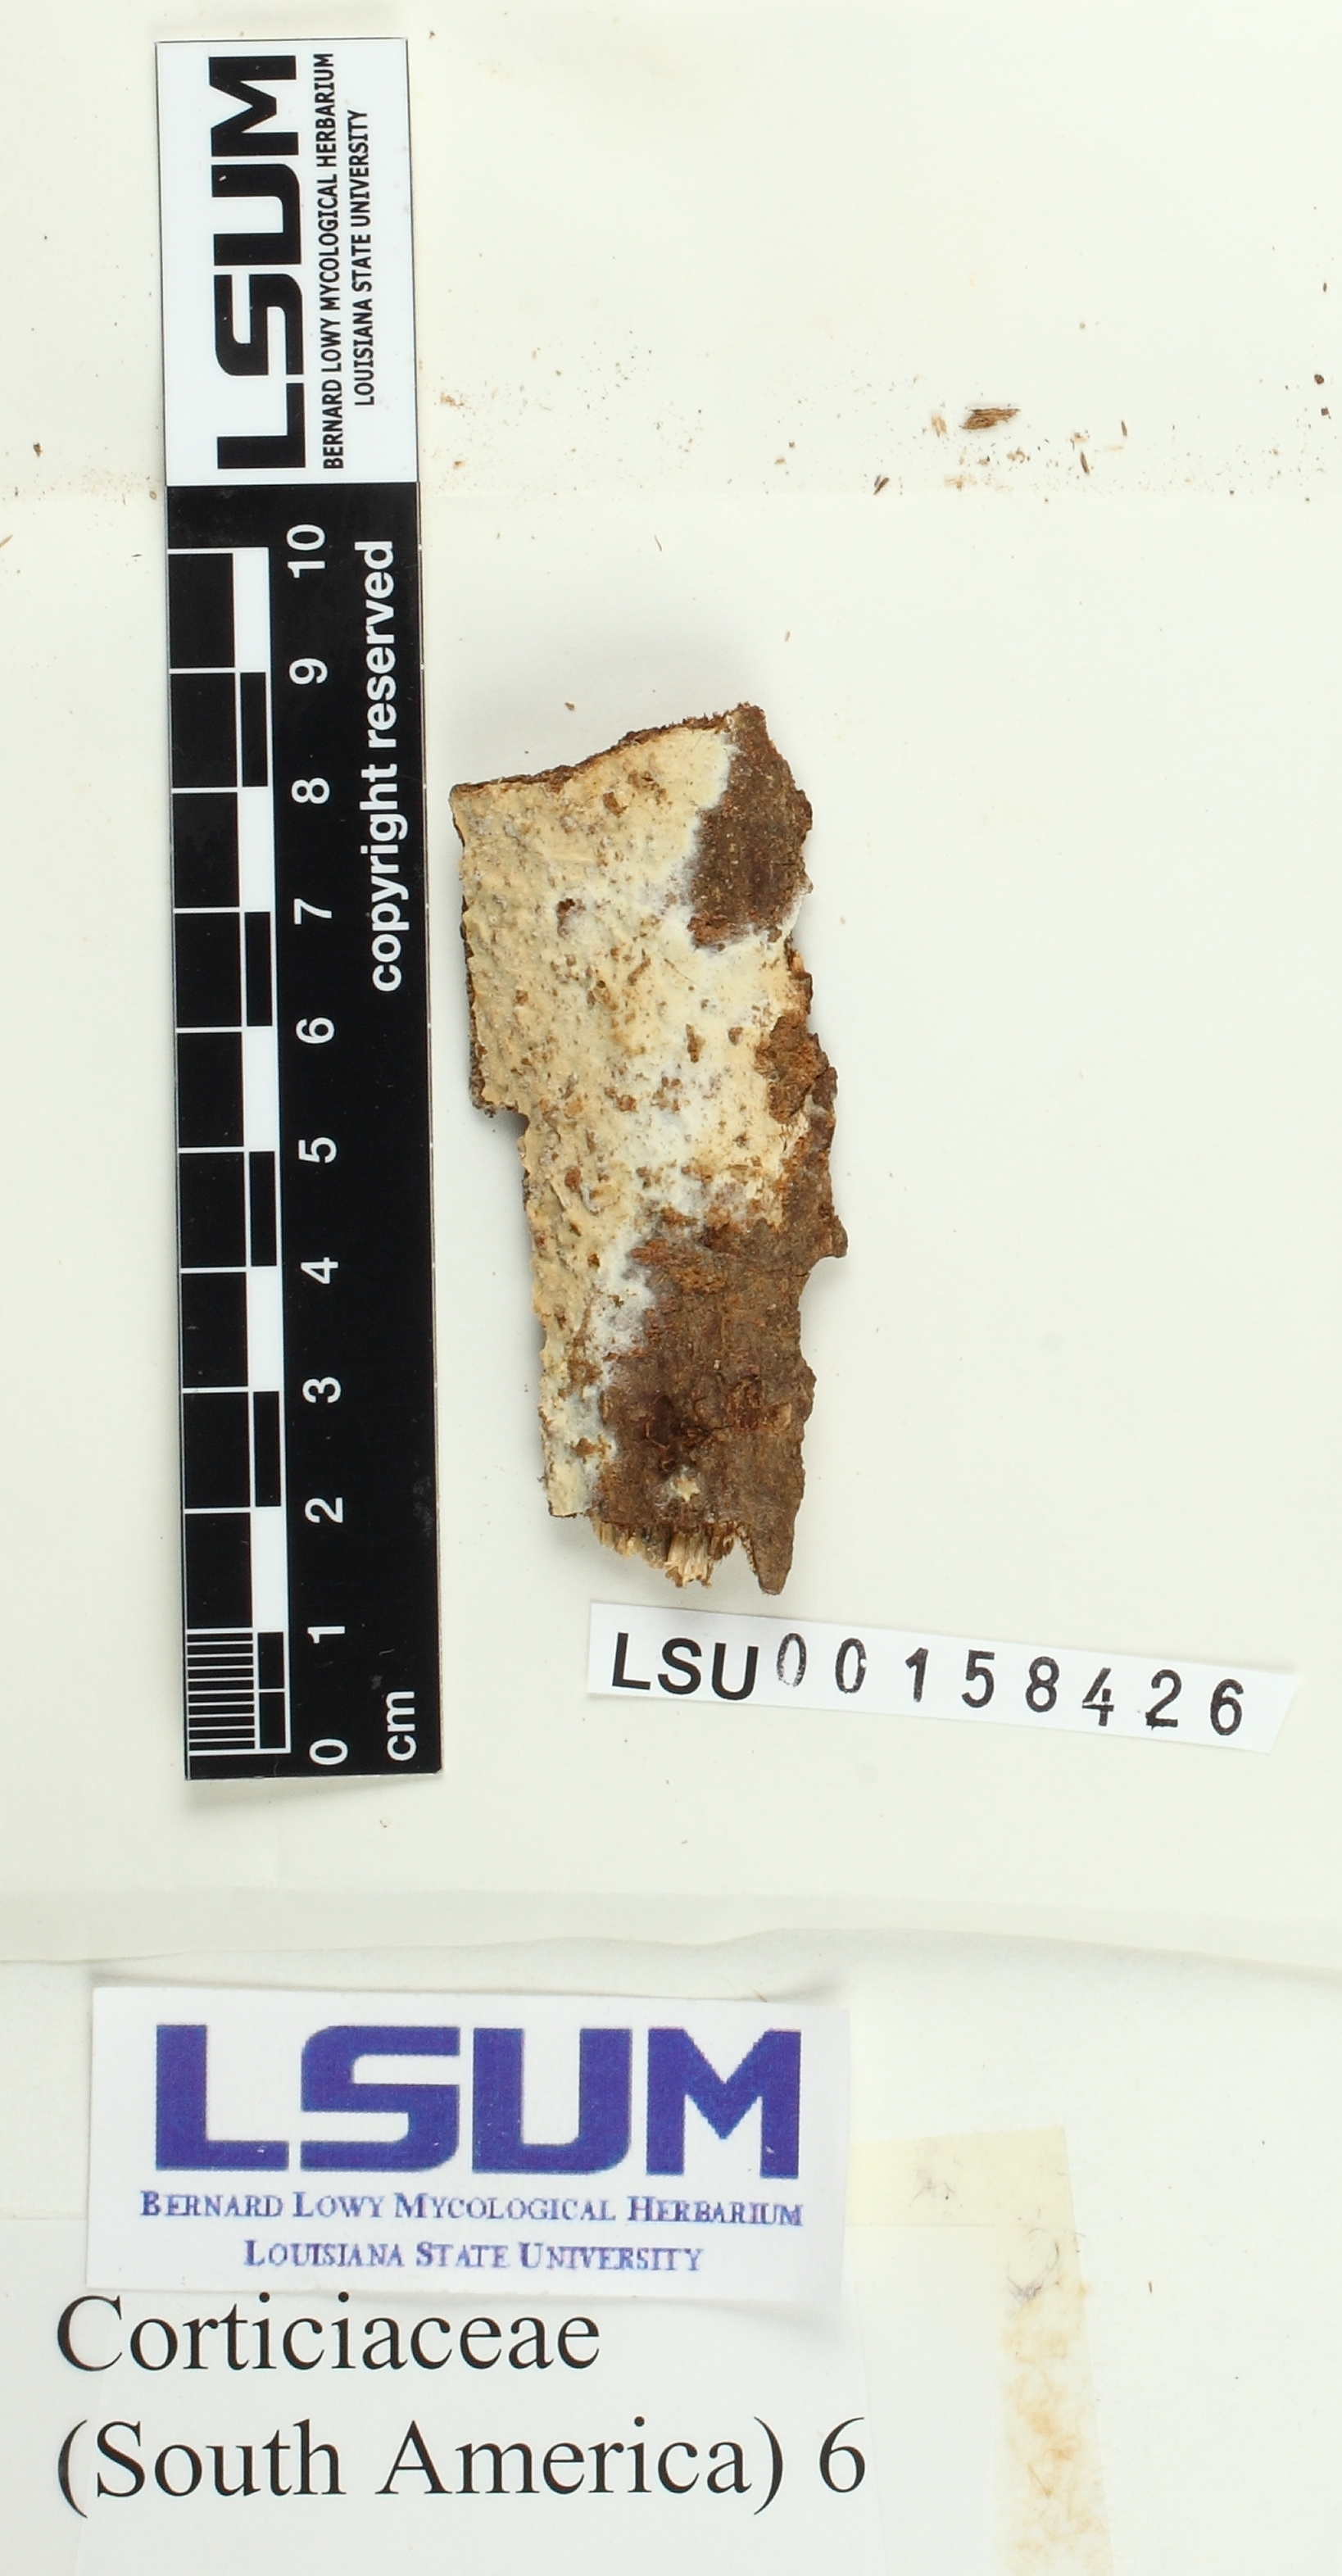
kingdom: Fungi
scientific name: Fungi
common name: Fungi
